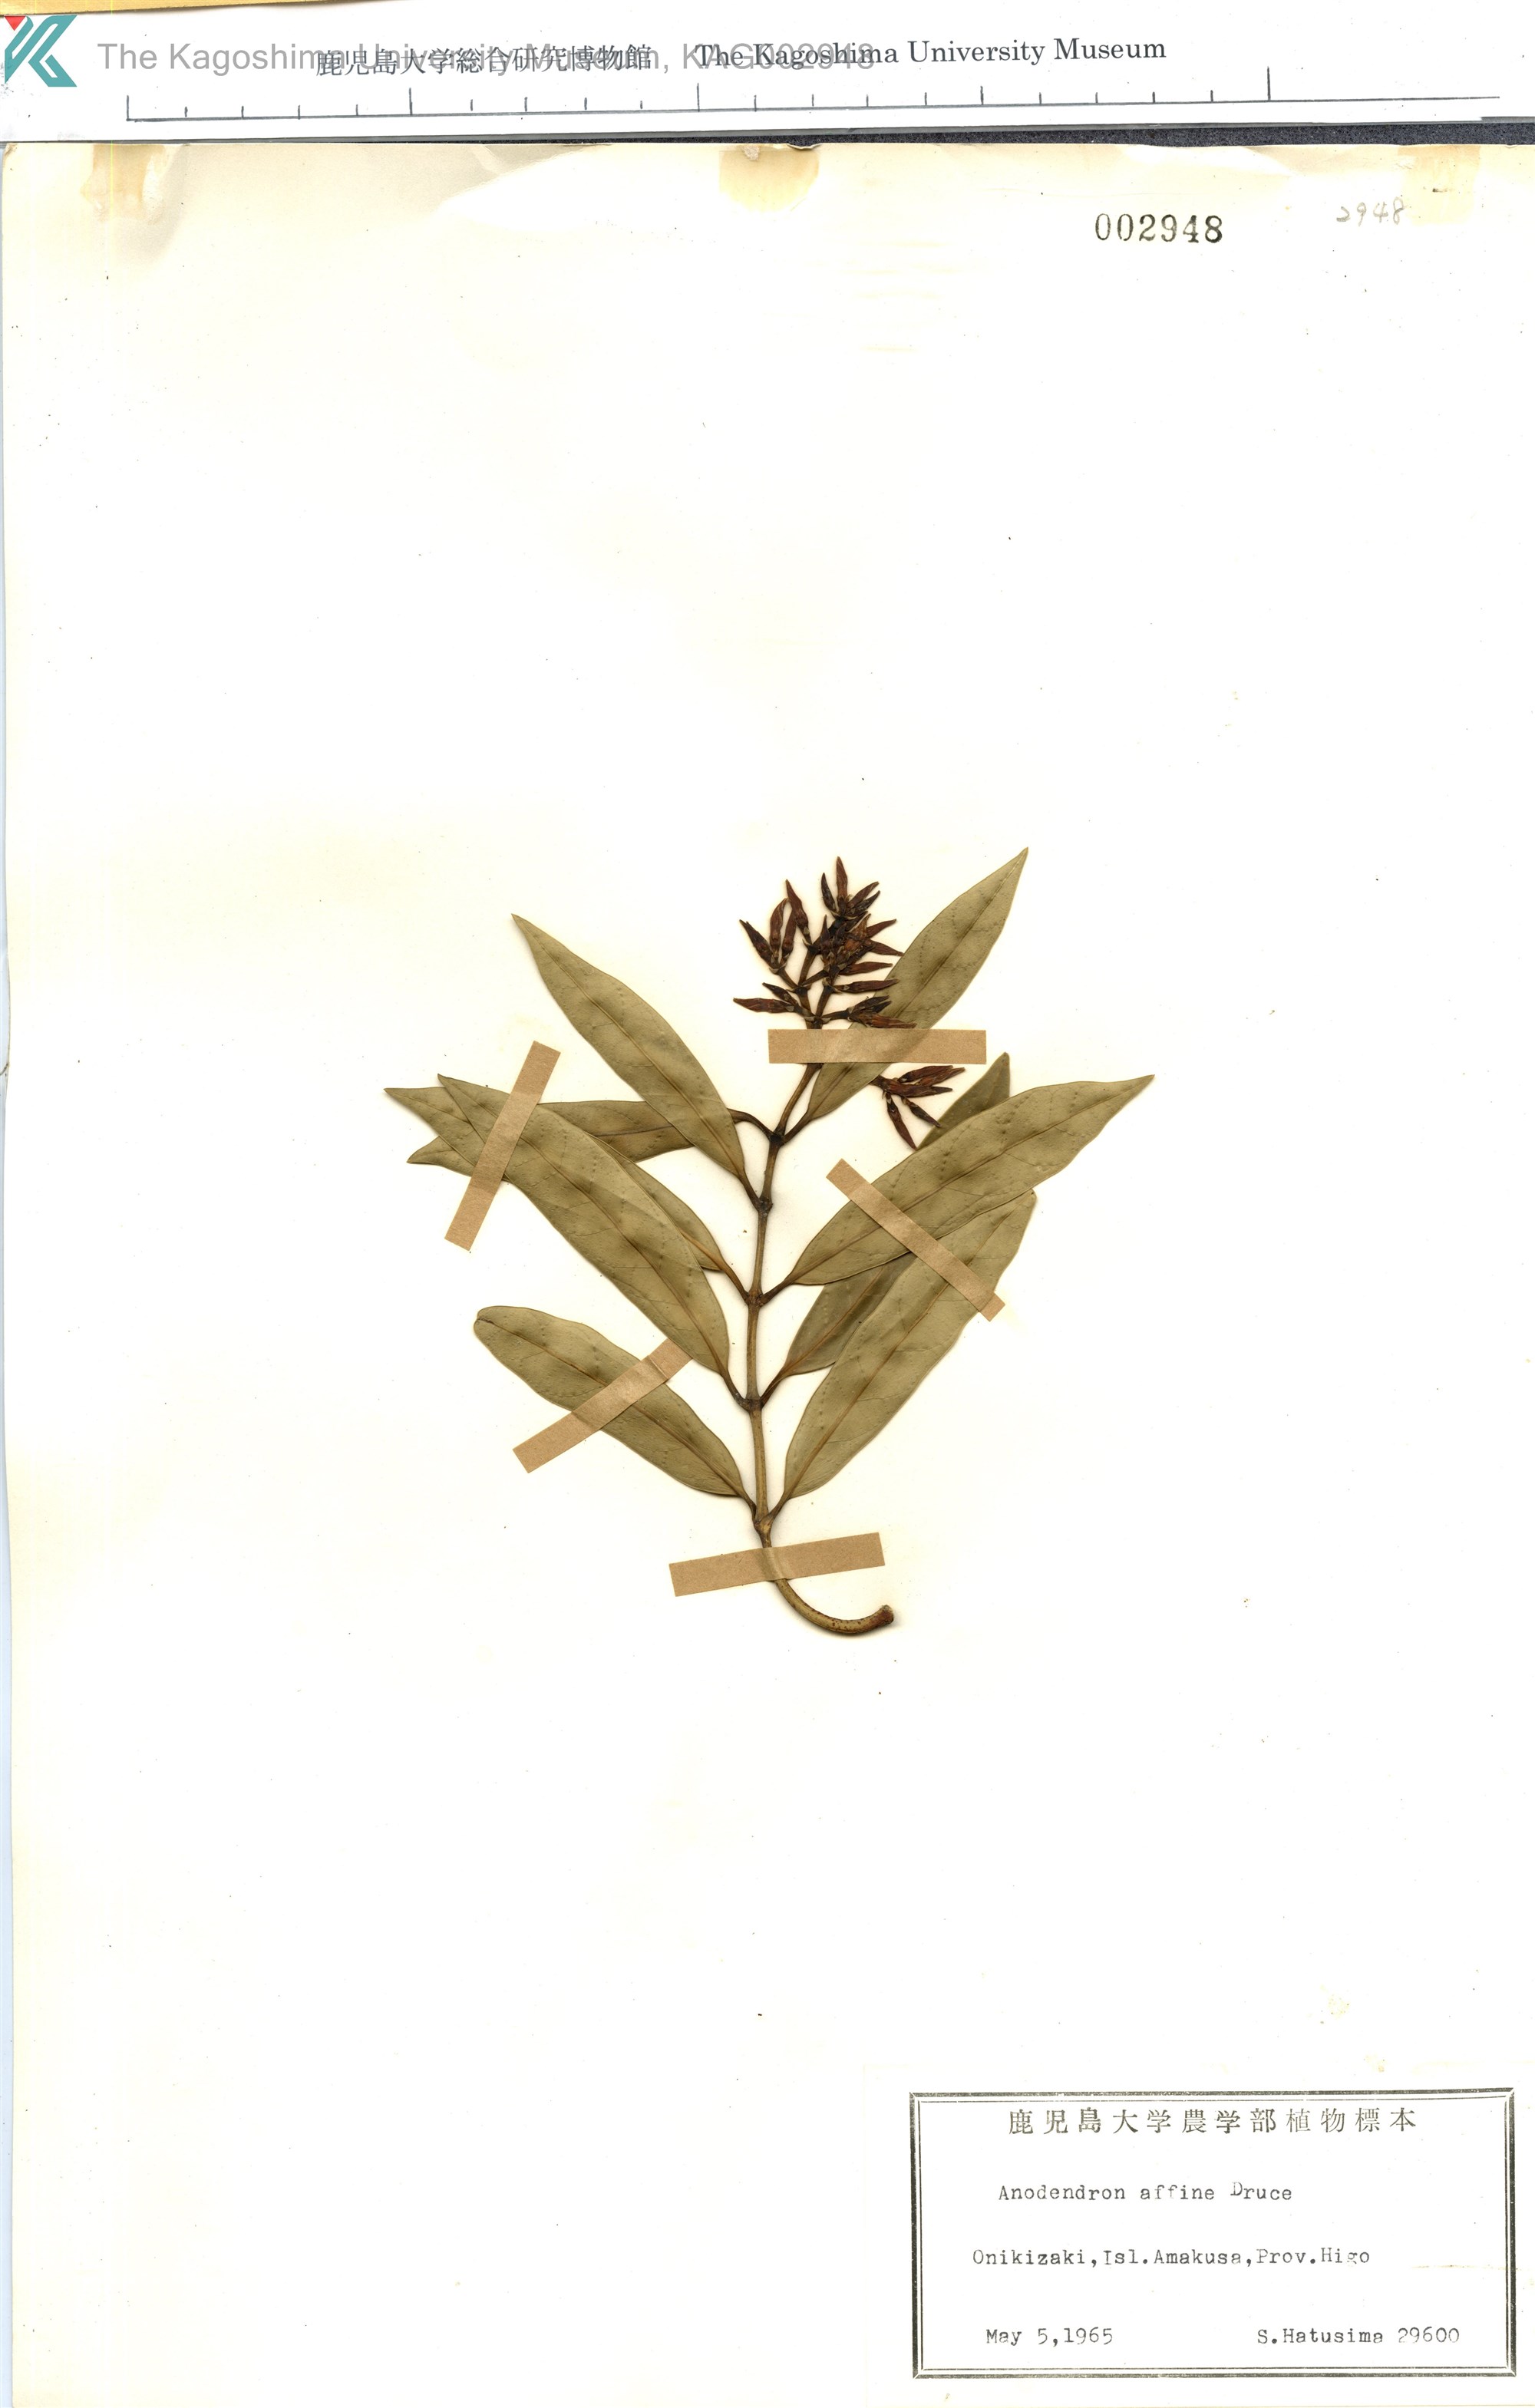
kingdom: Plantae
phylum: Tracheophyta
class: Magnoliopsida
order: Gentianales
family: Apocynaceae
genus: Anodendron
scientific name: Anodendron affine
